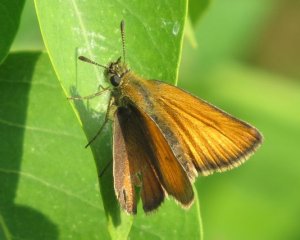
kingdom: Animalia
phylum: Arthropoda
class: Insecta
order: Lepidoptera
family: Hesperiidae
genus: Thymelicus
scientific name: Thymelicus lineola
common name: European Skipper
